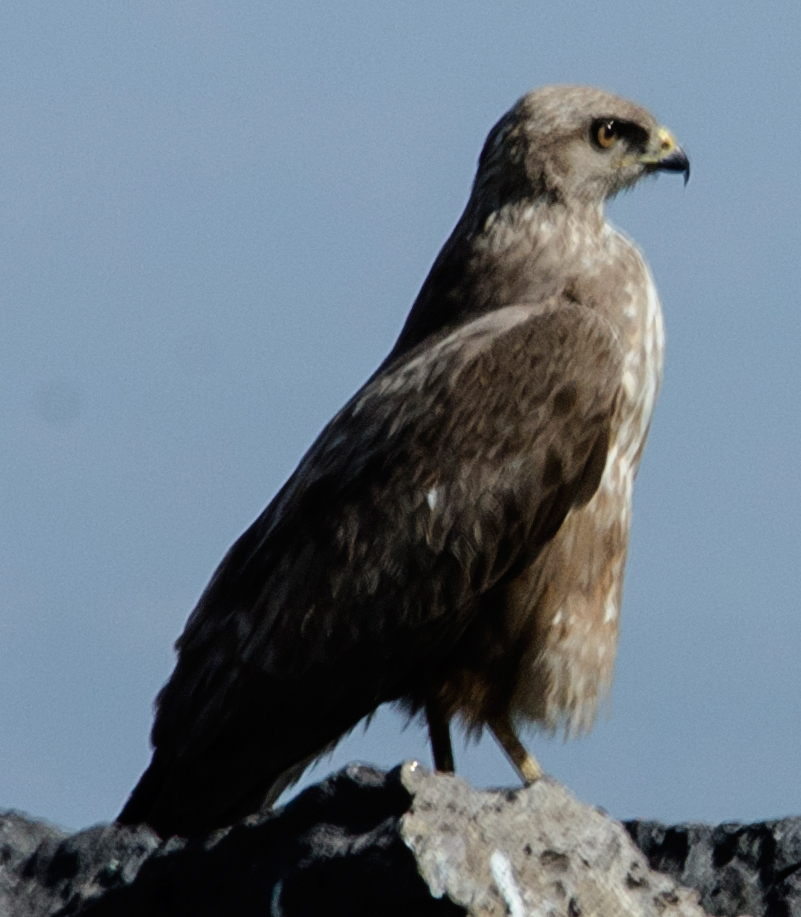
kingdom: Animalia
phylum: Chordata
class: Aves
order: Accipitriformes
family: Accipitridae
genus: Circus
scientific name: Circus
